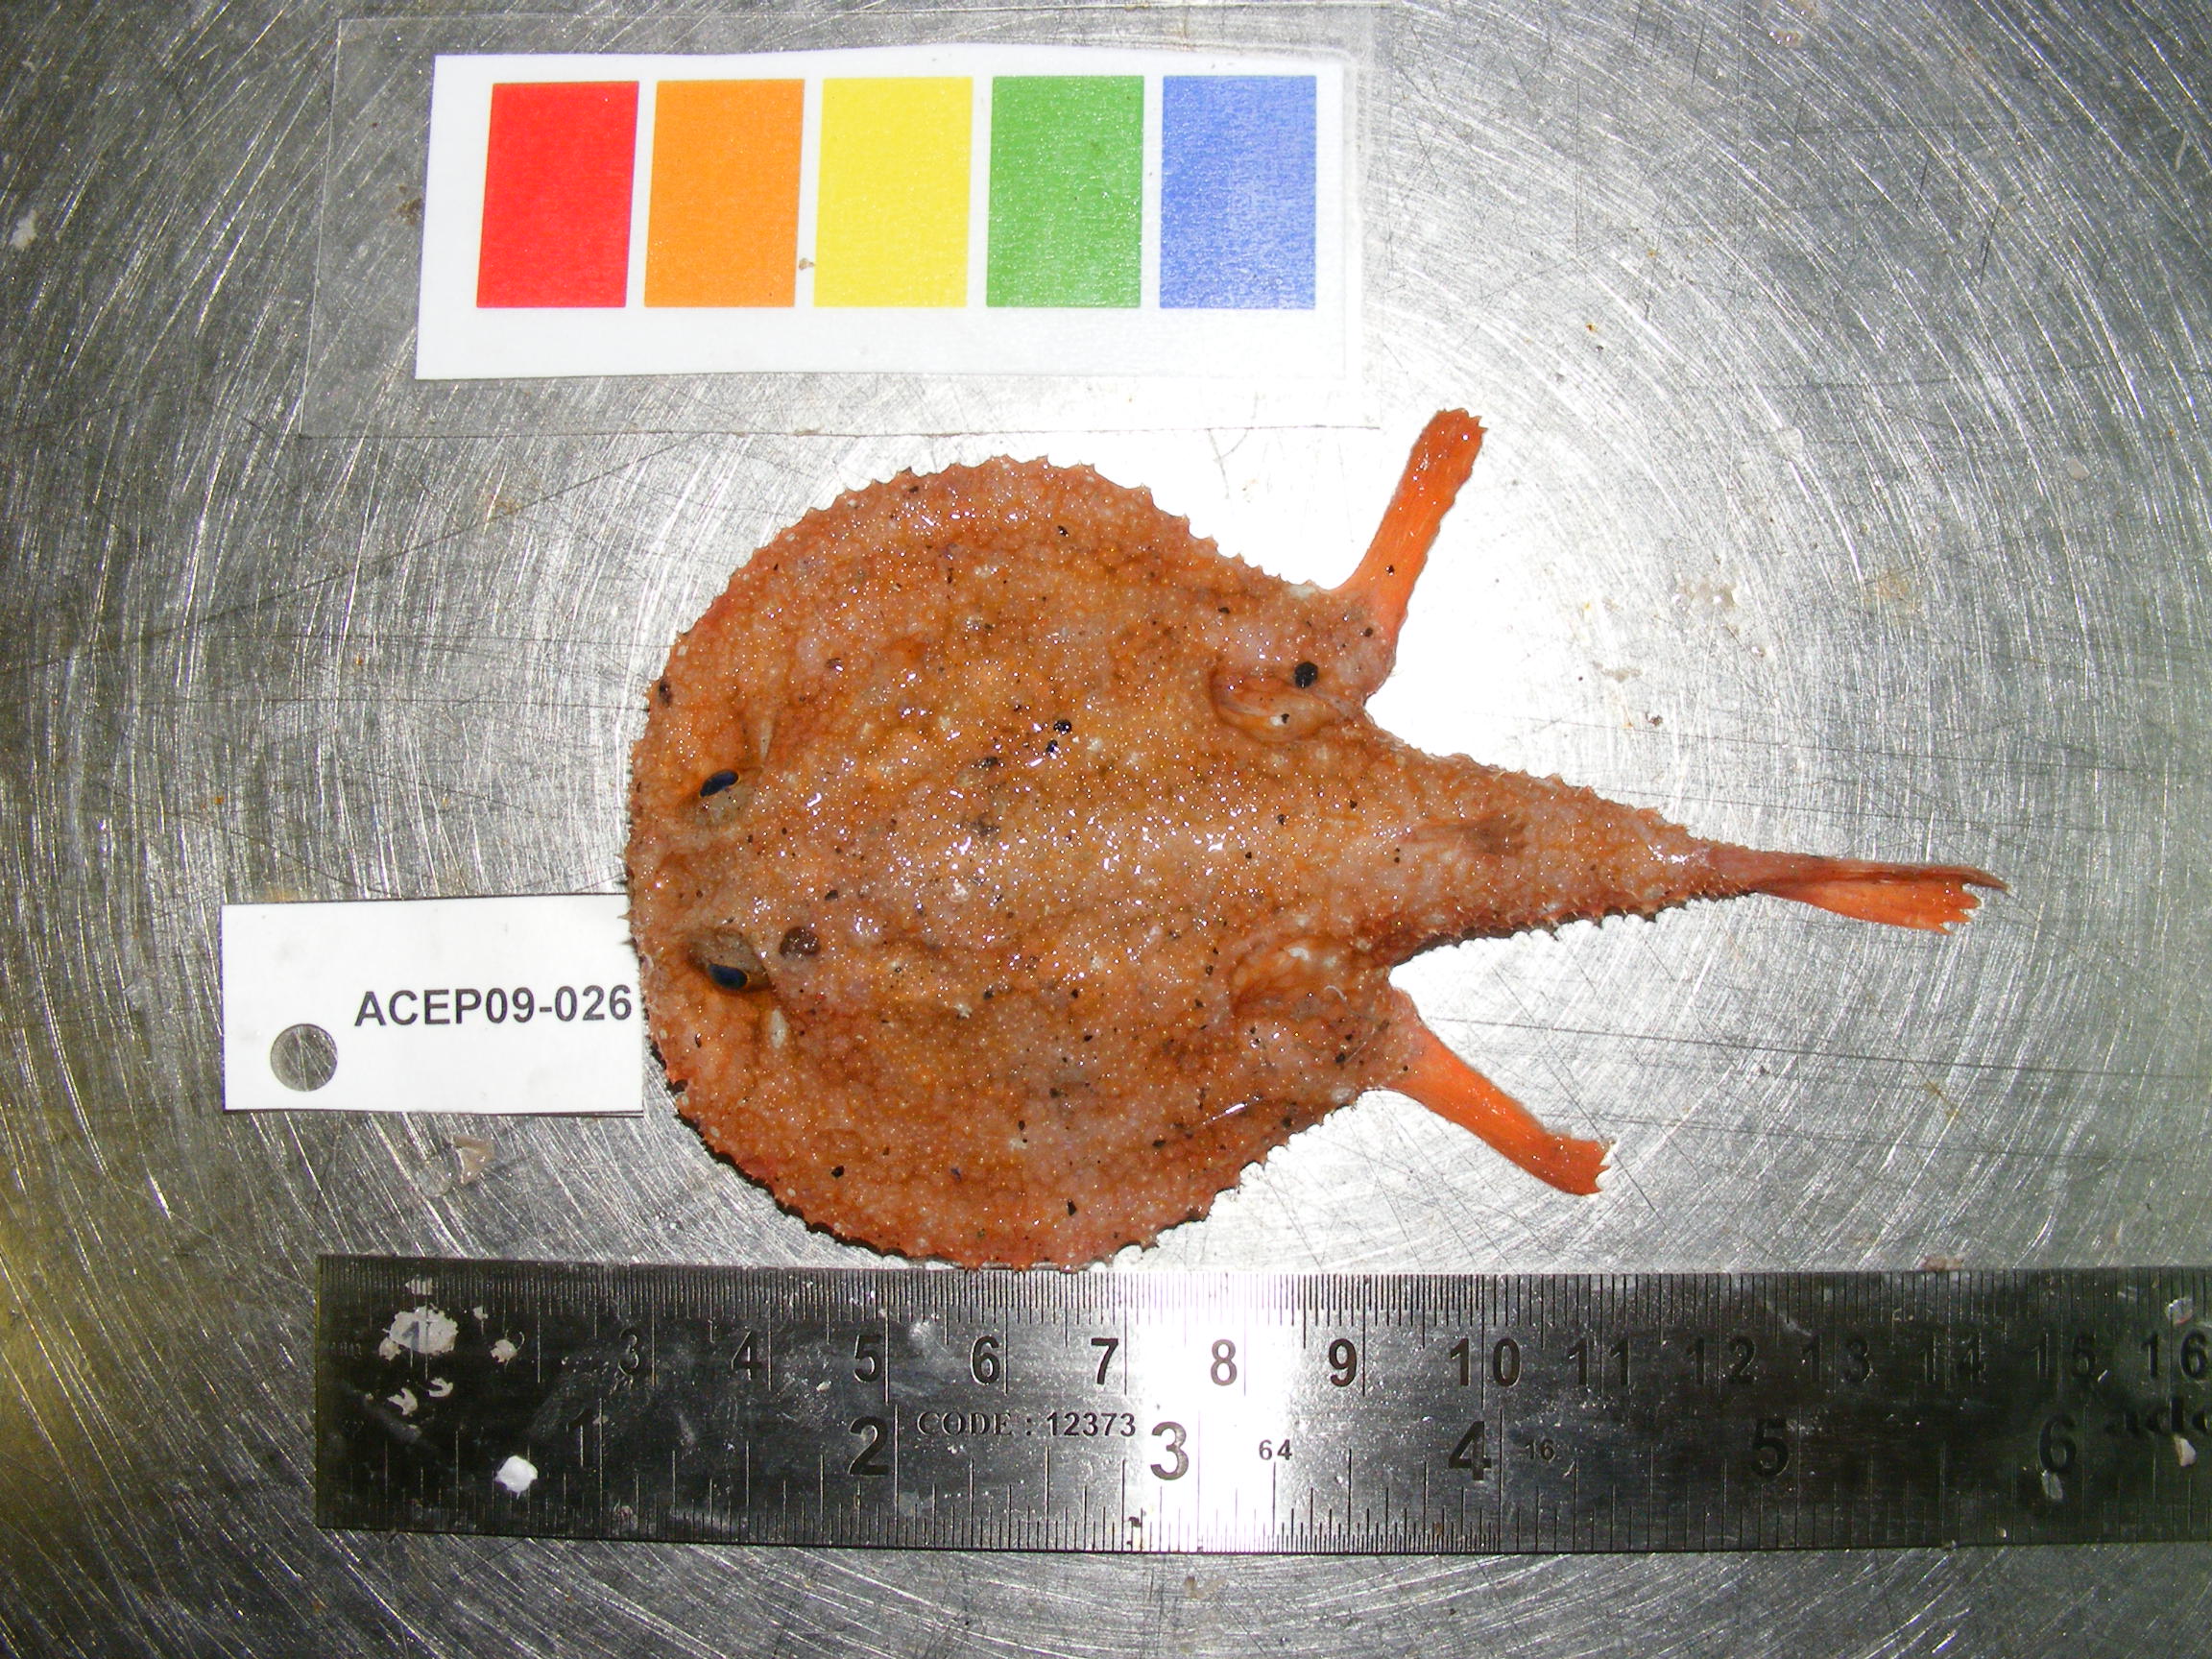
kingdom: Animalia
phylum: Chordata
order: Lophiiformes
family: Ogcocephalidae
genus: Halieutaea
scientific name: Halieutaea hancocki
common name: Hairy seabat
